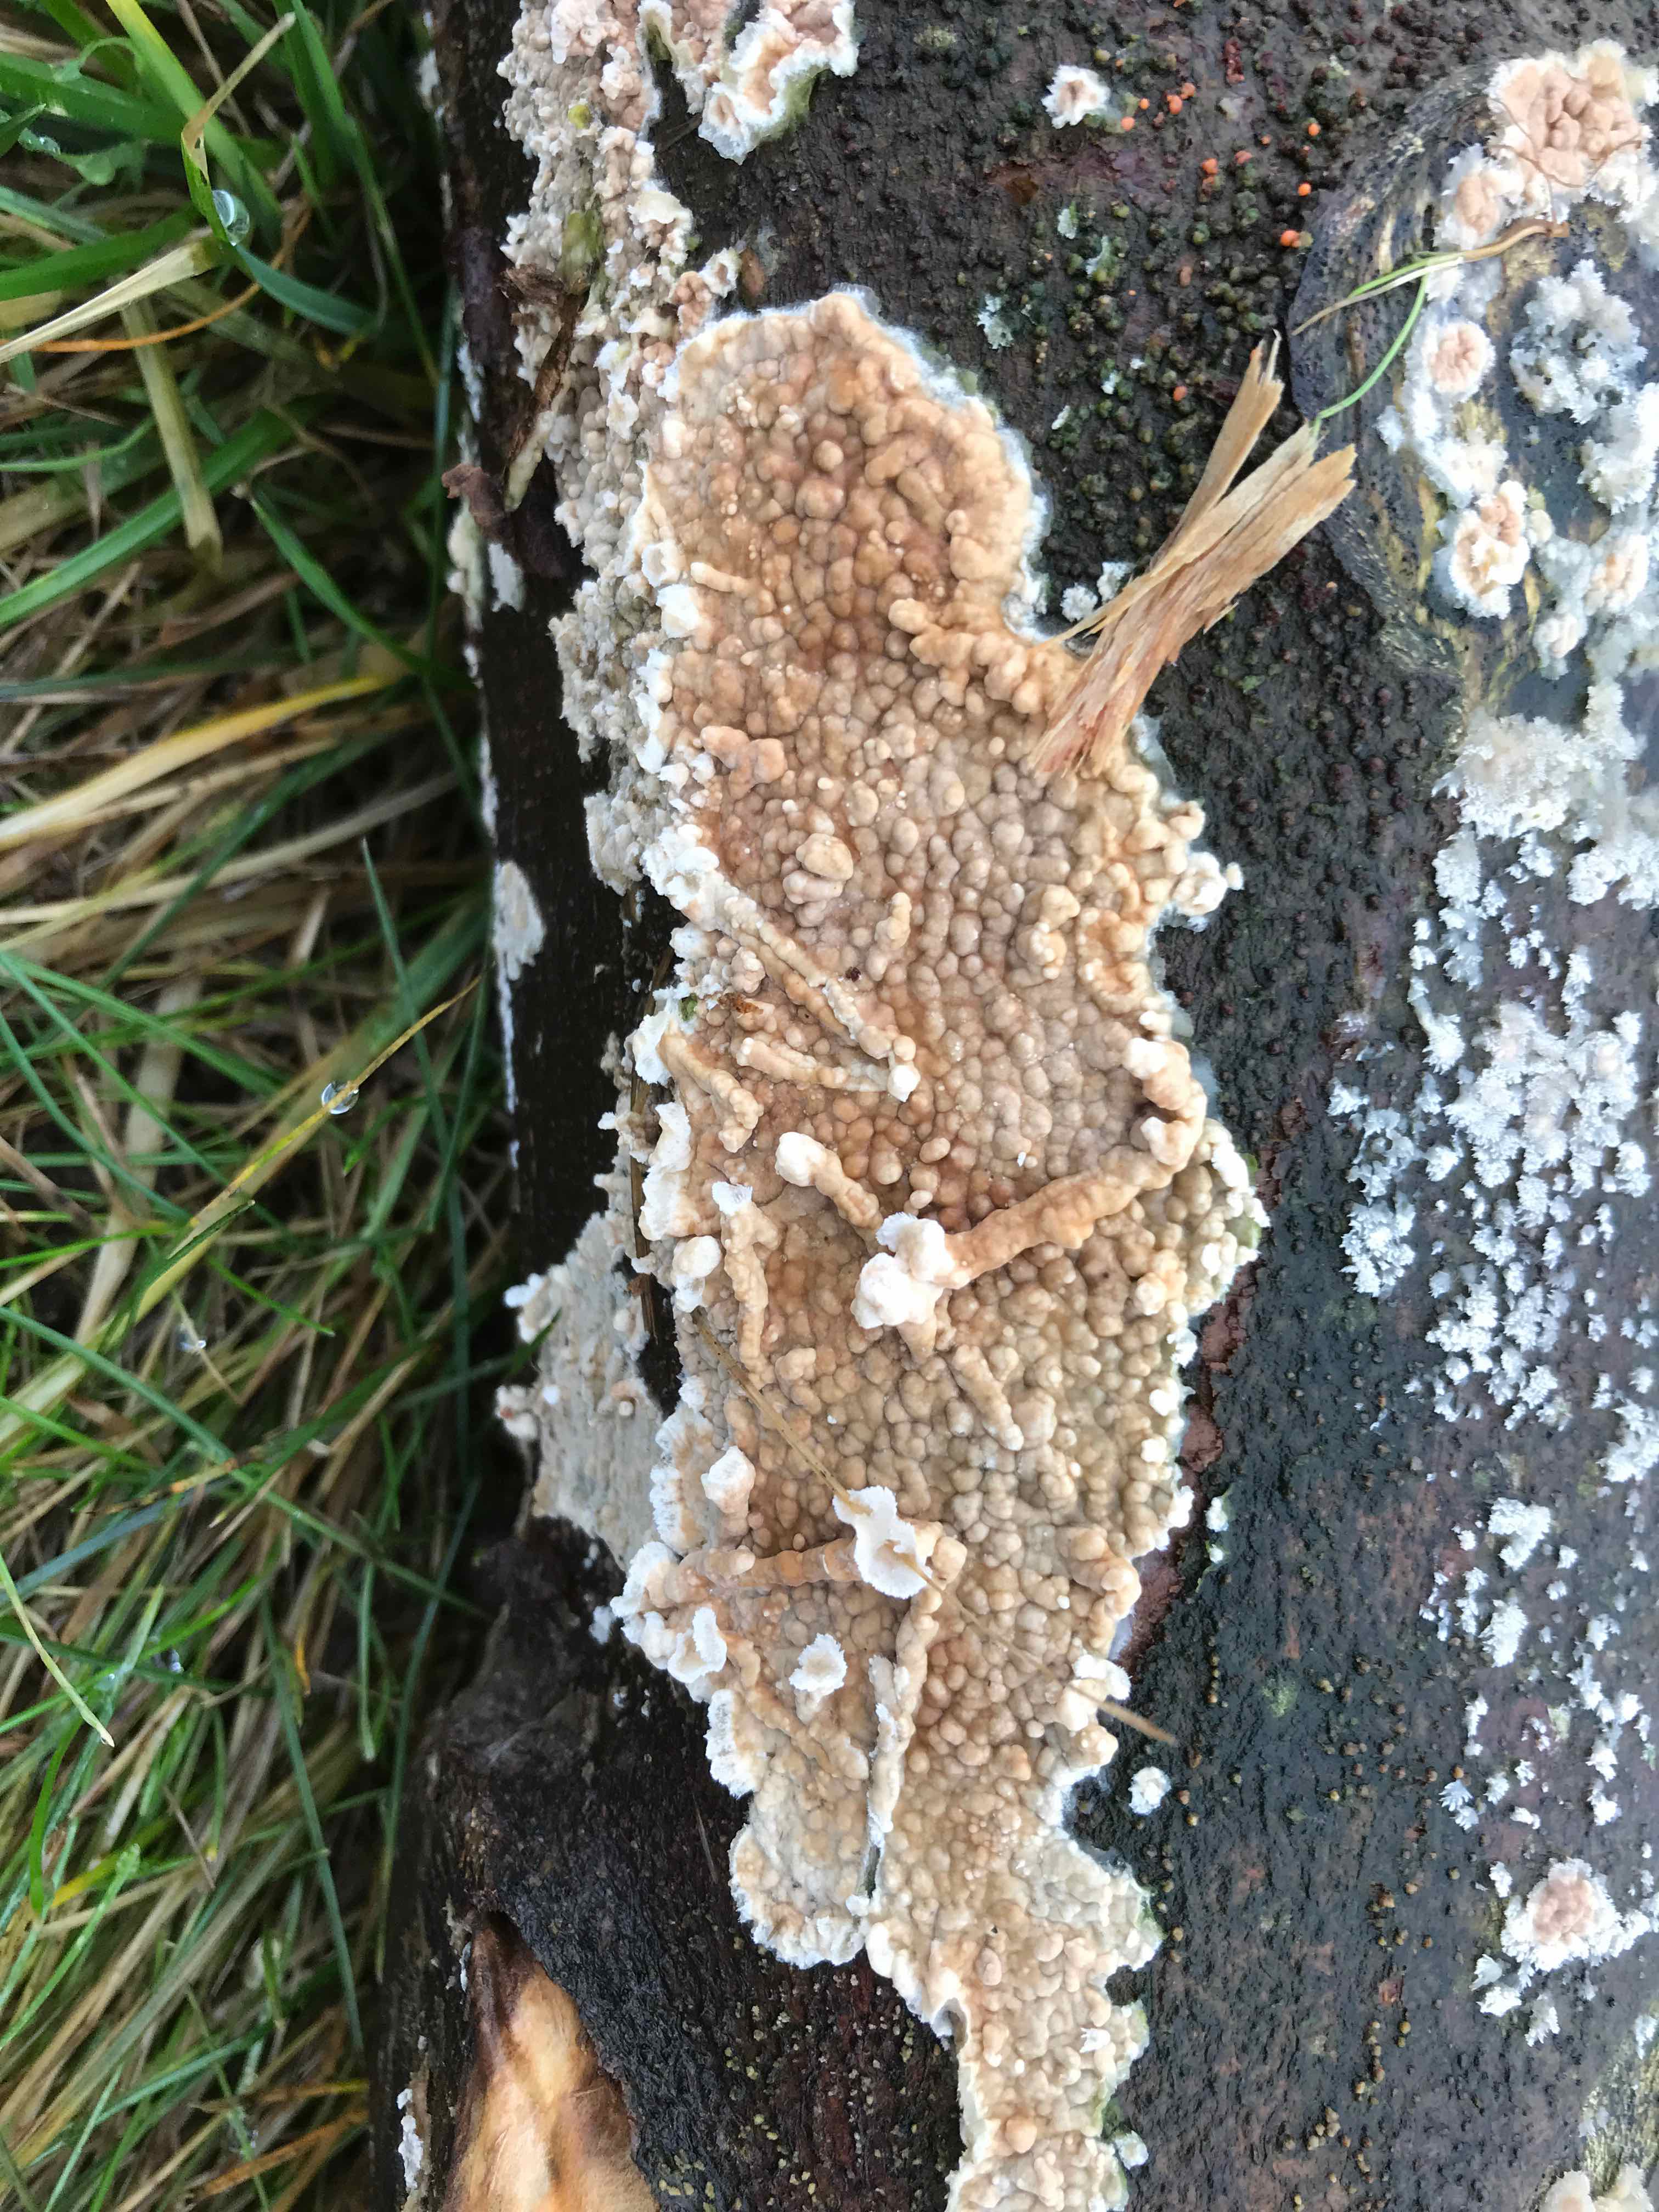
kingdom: Fungi
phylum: Basidiomycota
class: Agaricomycetes
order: Agaricales
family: Physalacriaceae
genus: Cylindrobasidium
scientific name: Cylindrobasidium evolvens
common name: sprækkehinde
